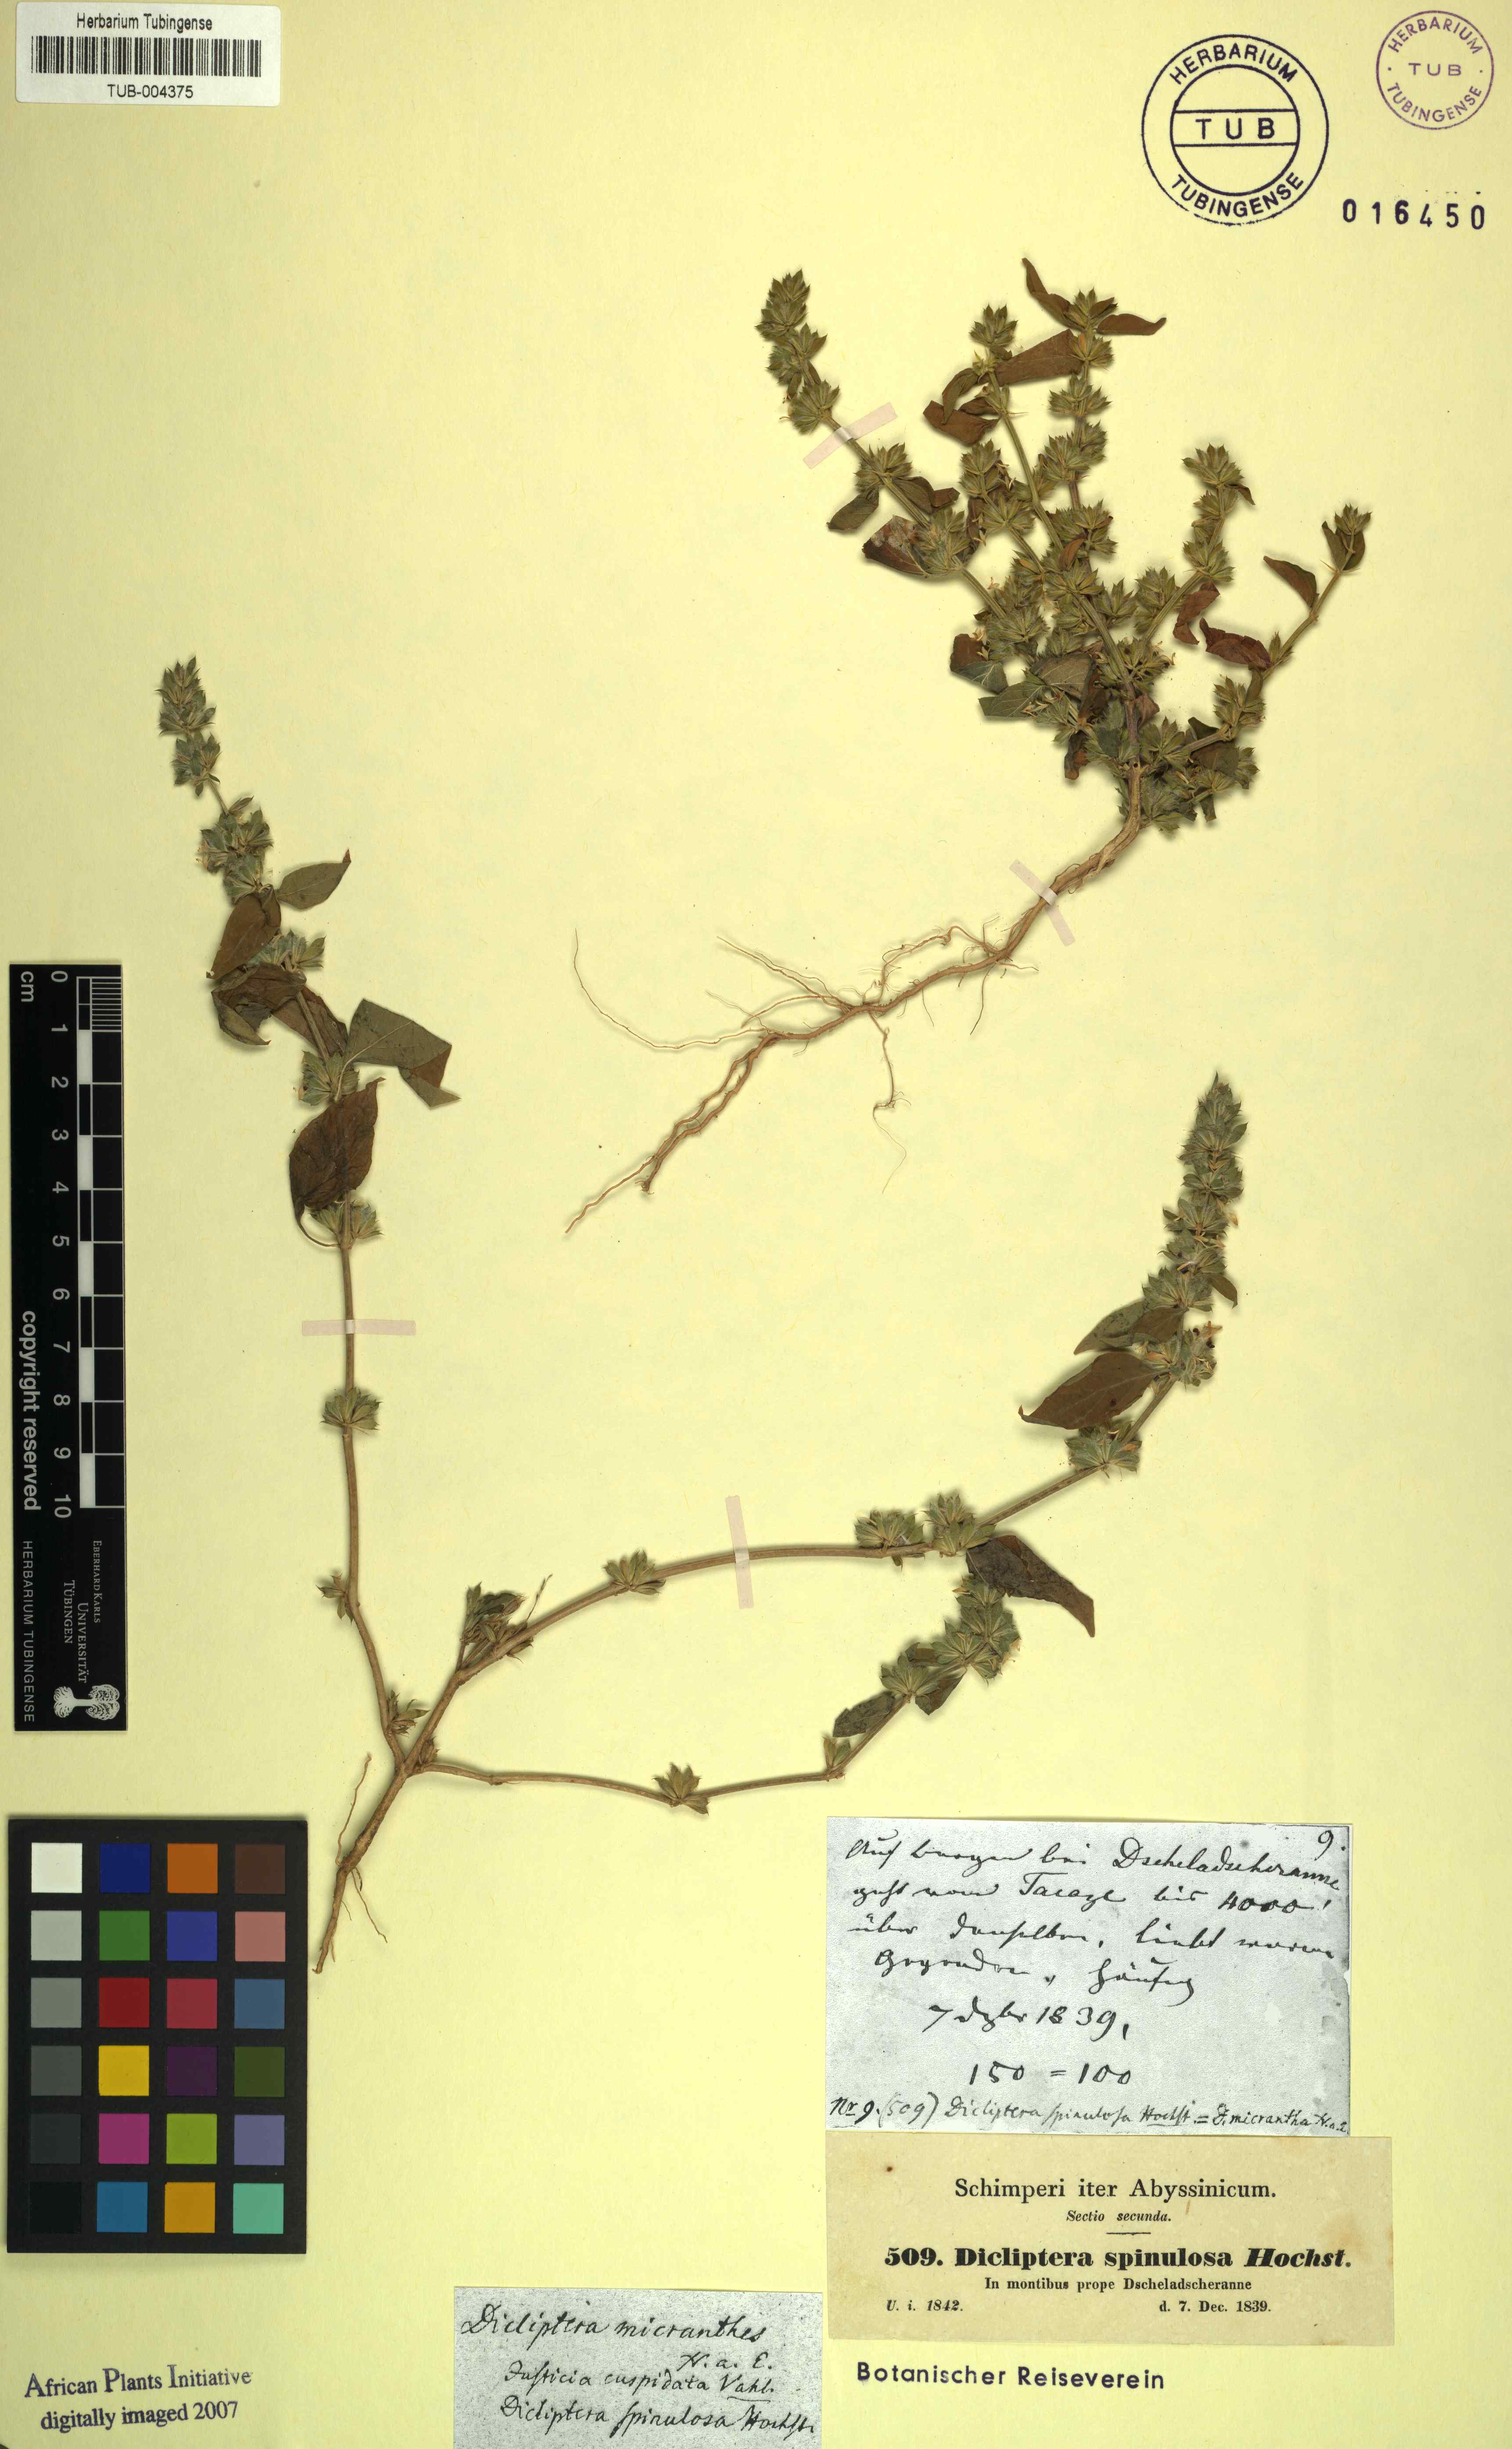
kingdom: Plantae
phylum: Tracheophyta
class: Magnoliopsida
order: Lamiales
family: Acanthaceae
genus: Dicliptera
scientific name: Dicliptera verticillata
